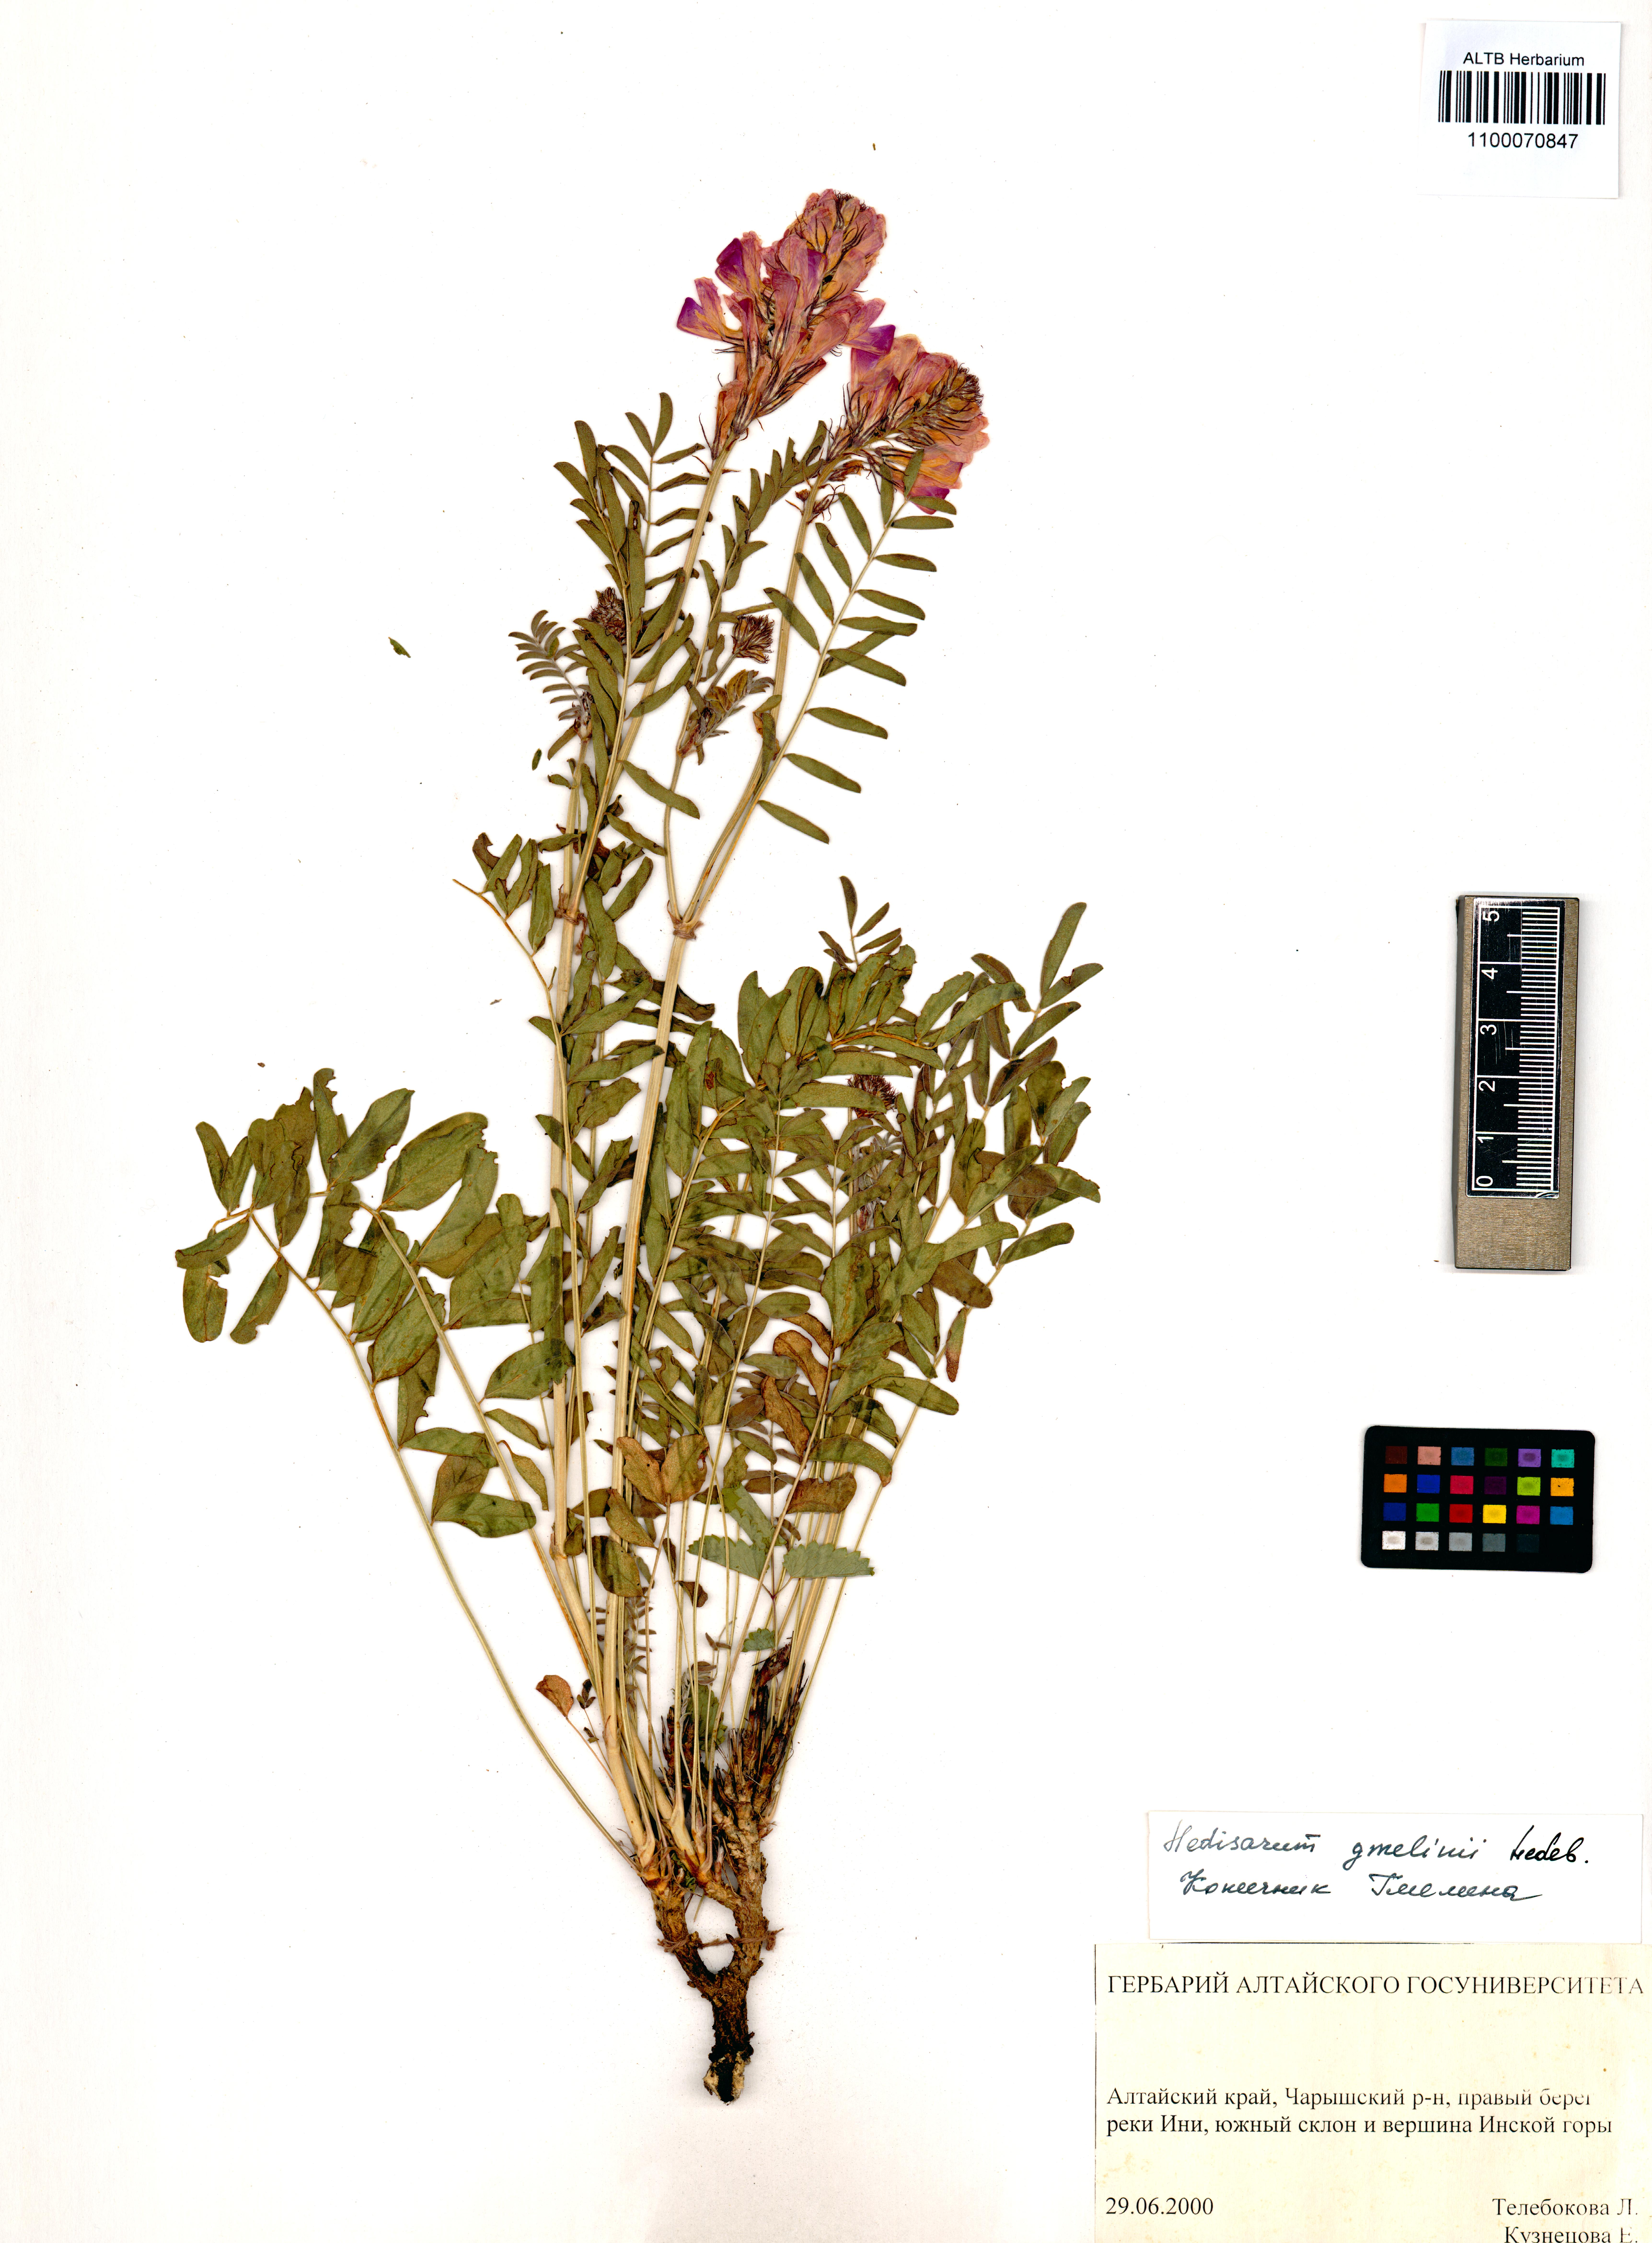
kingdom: Plantae
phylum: Tracheophyta
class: Magnoliopsida
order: Fabales
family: Fabaceae
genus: Hedysarum
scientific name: Hedysarum gmelinii
